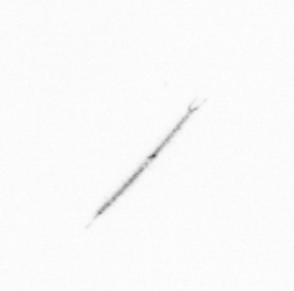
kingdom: Chromista
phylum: Ochrophyta
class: Bacillariophyceae
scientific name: Bacillariophyceae
